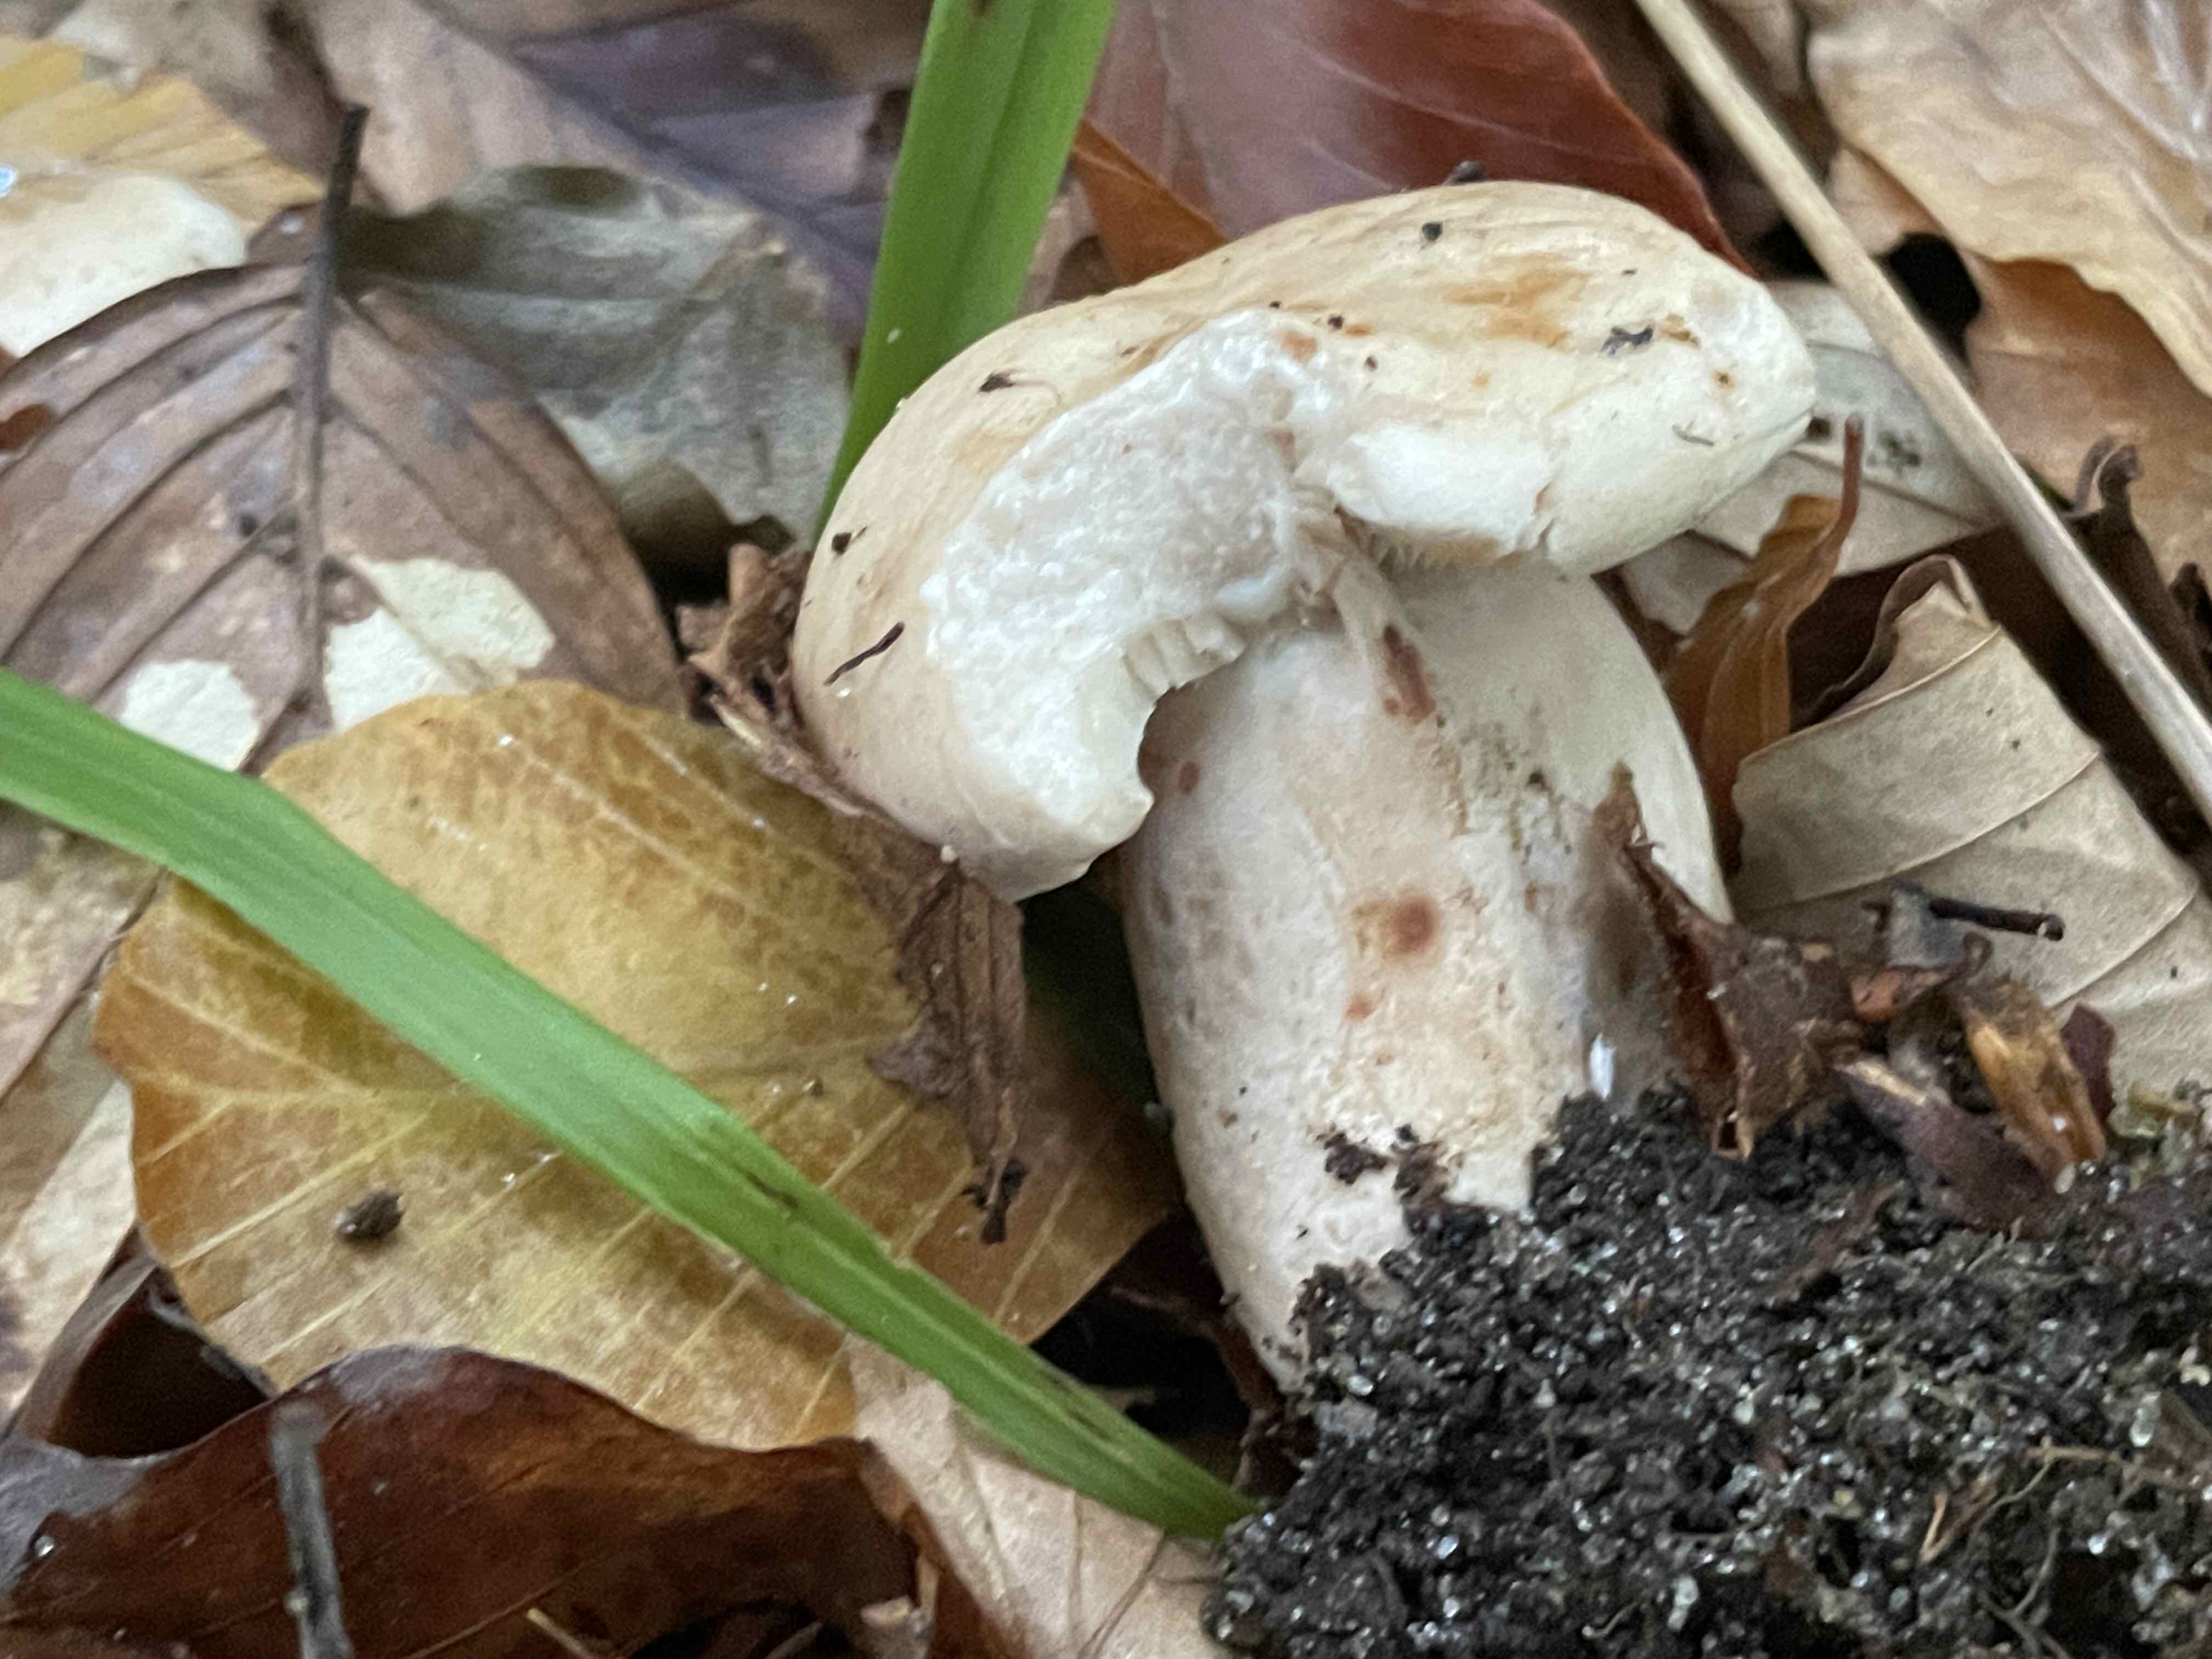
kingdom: Fungi
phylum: Basidiomycota
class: Agaricomycetes
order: Russulales
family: Russulaceae
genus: Lactarius
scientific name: Lactarius pallidus
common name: bleg mælkehat
